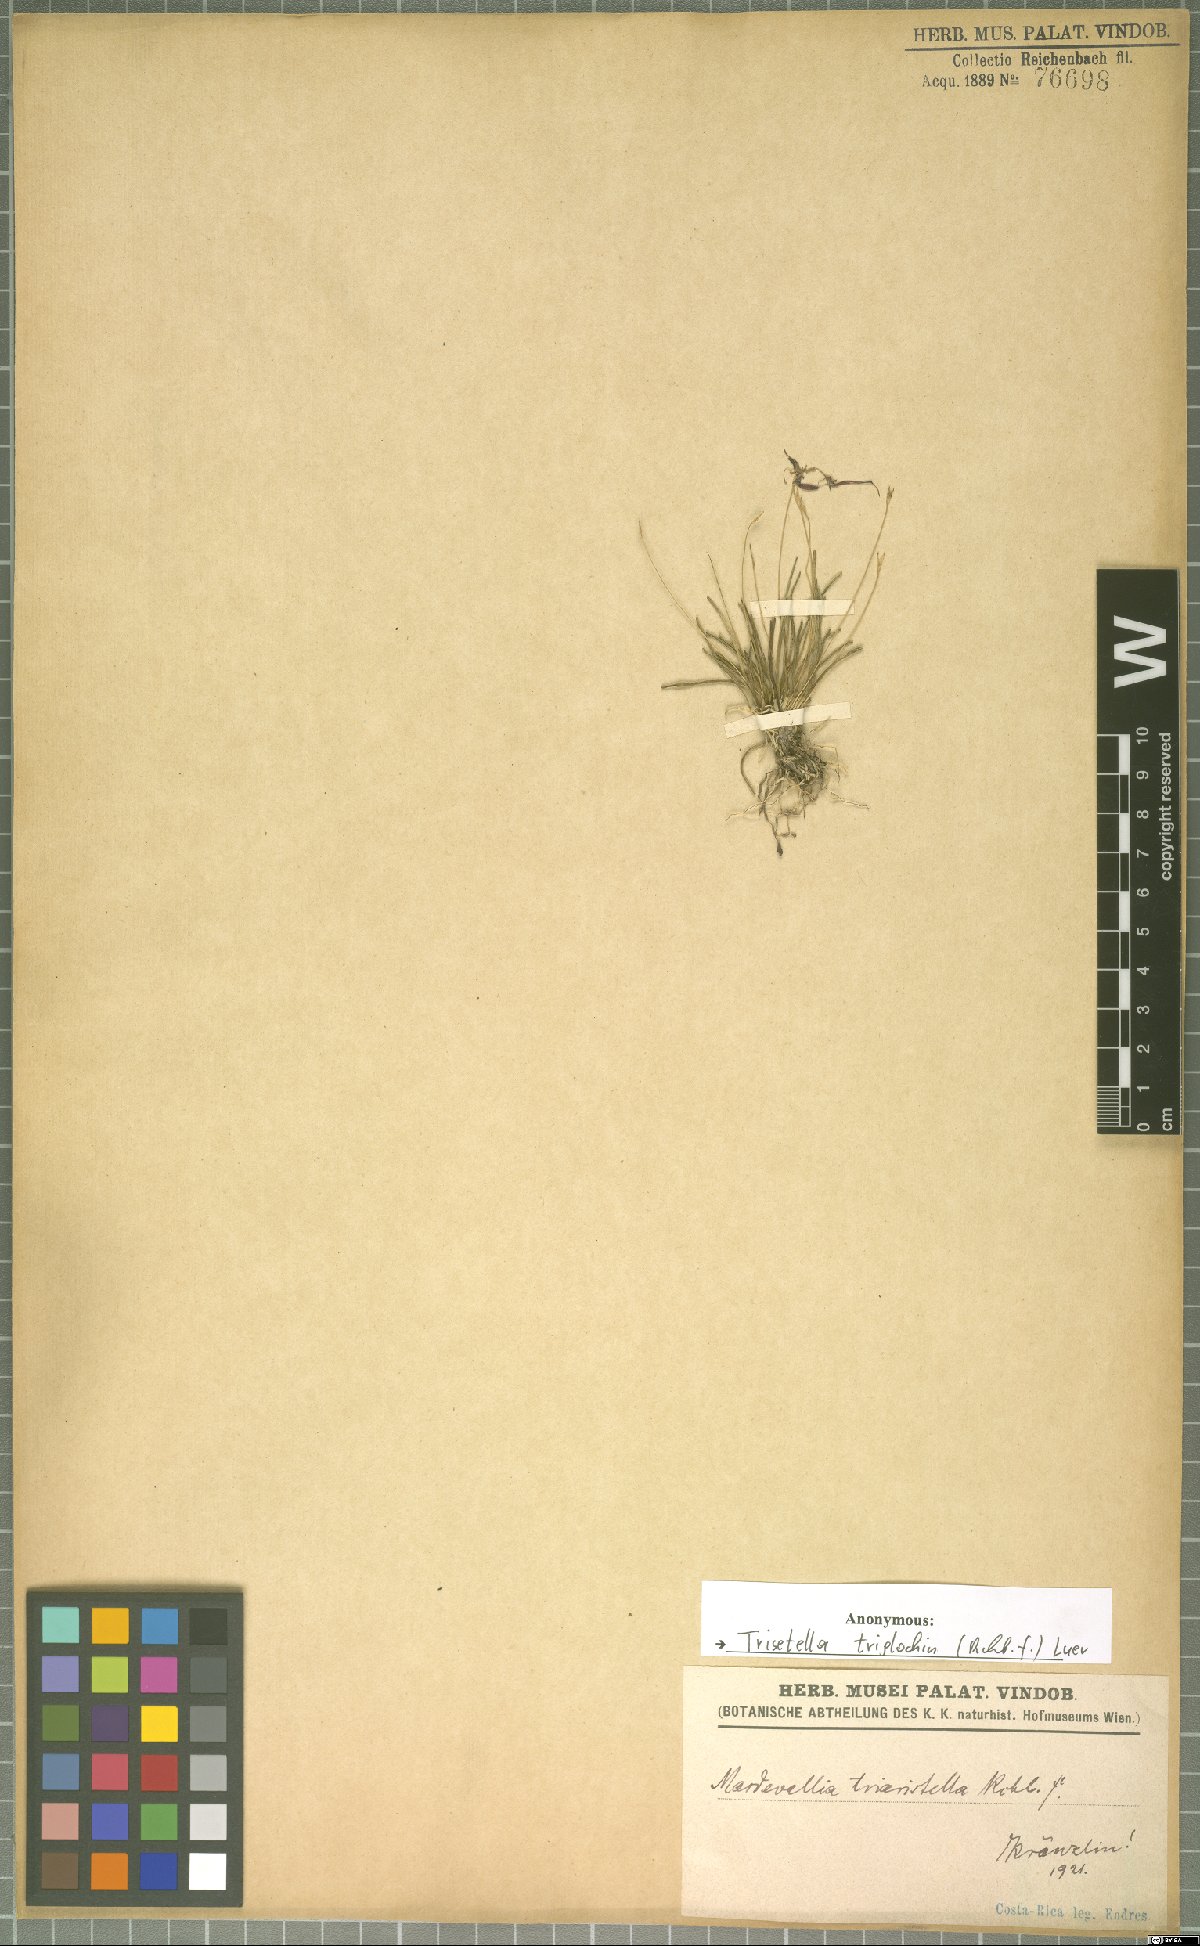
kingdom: Plantae
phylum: Tracheophyta
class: Liliopsida
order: Asparagales
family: Orchidaceae
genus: Trisetella
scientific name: Trisetella triglochin
